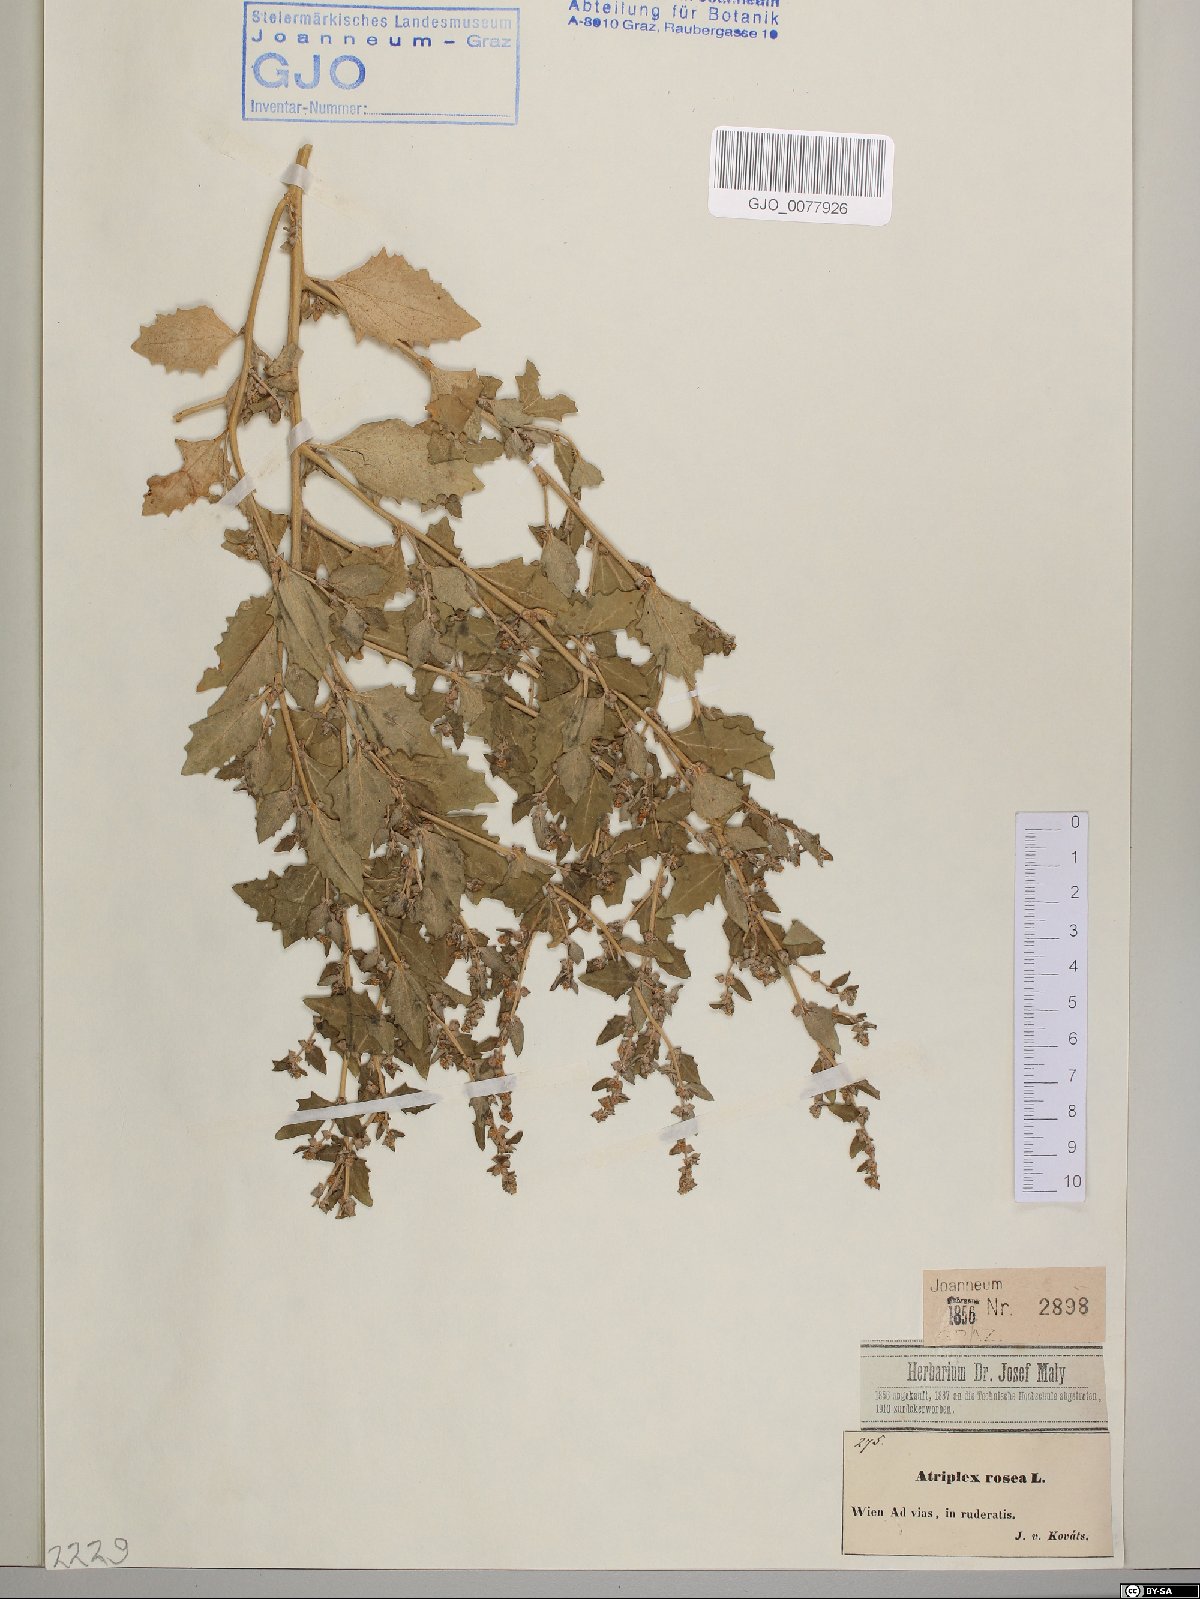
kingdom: Plantae
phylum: Tracheophyta
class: Magnoliopsida
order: Caryophyllales
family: Amaranthaceae
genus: Atriplex
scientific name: Atriplex rosea
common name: Tumbling saltweed
